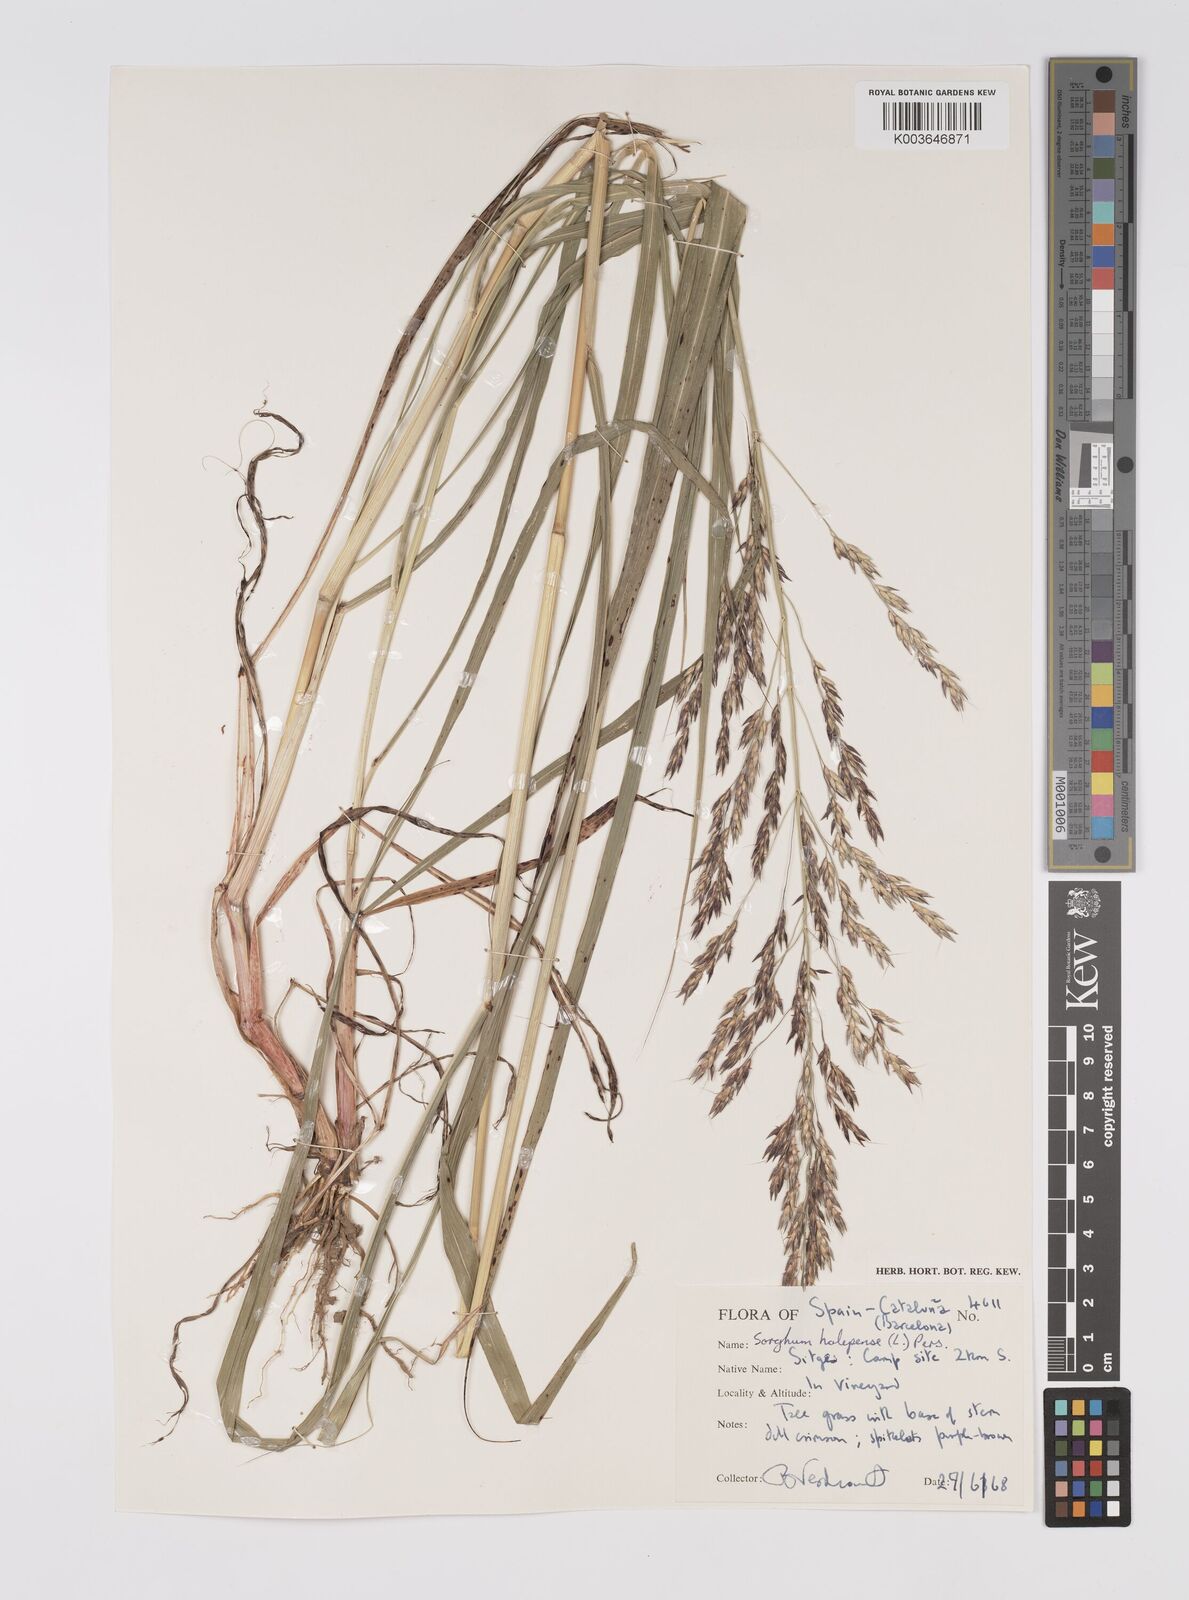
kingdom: Plantae
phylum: Tracheophyta
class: Liliopsida
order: Poales
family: Poaceae
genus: Sorghum
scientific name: Sorghum halepense
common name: Johnson-grass
